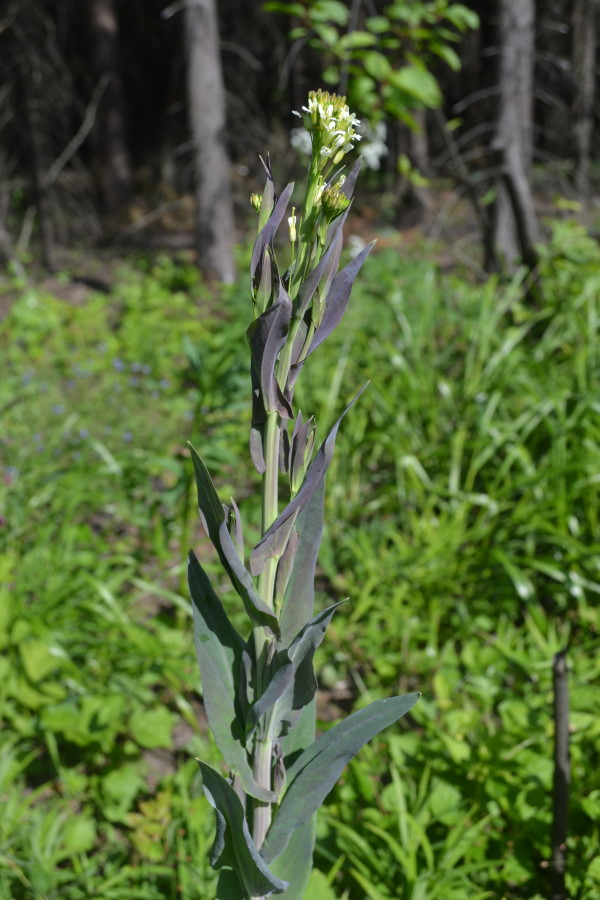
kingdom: Plantae
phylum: Tracheophyta
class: Magnoliopsida
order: Brassicales
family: Brassicaceae
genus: Turritis
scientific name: Turritis glabra
